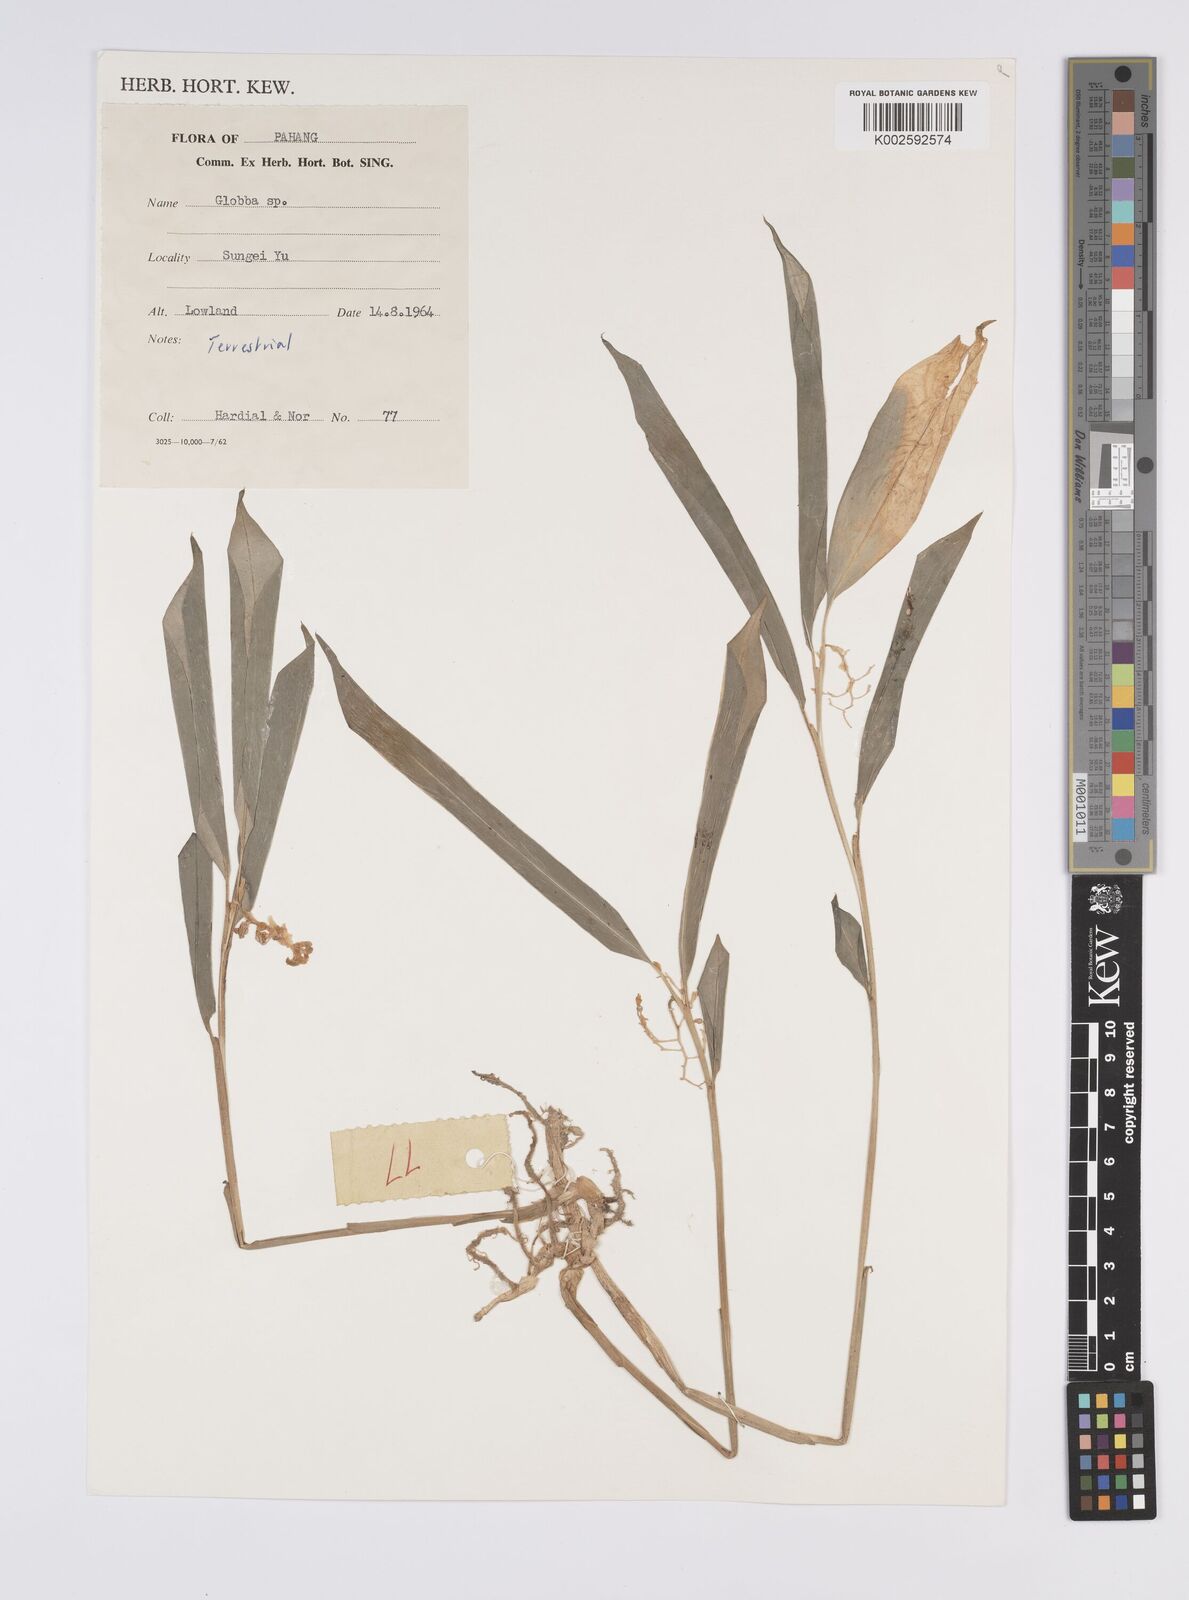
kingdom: Plantae
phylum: Tracheophyta
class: Liliopsida
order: Zingiberales
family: Zingiberaceae
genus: Globba
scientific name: Globba
